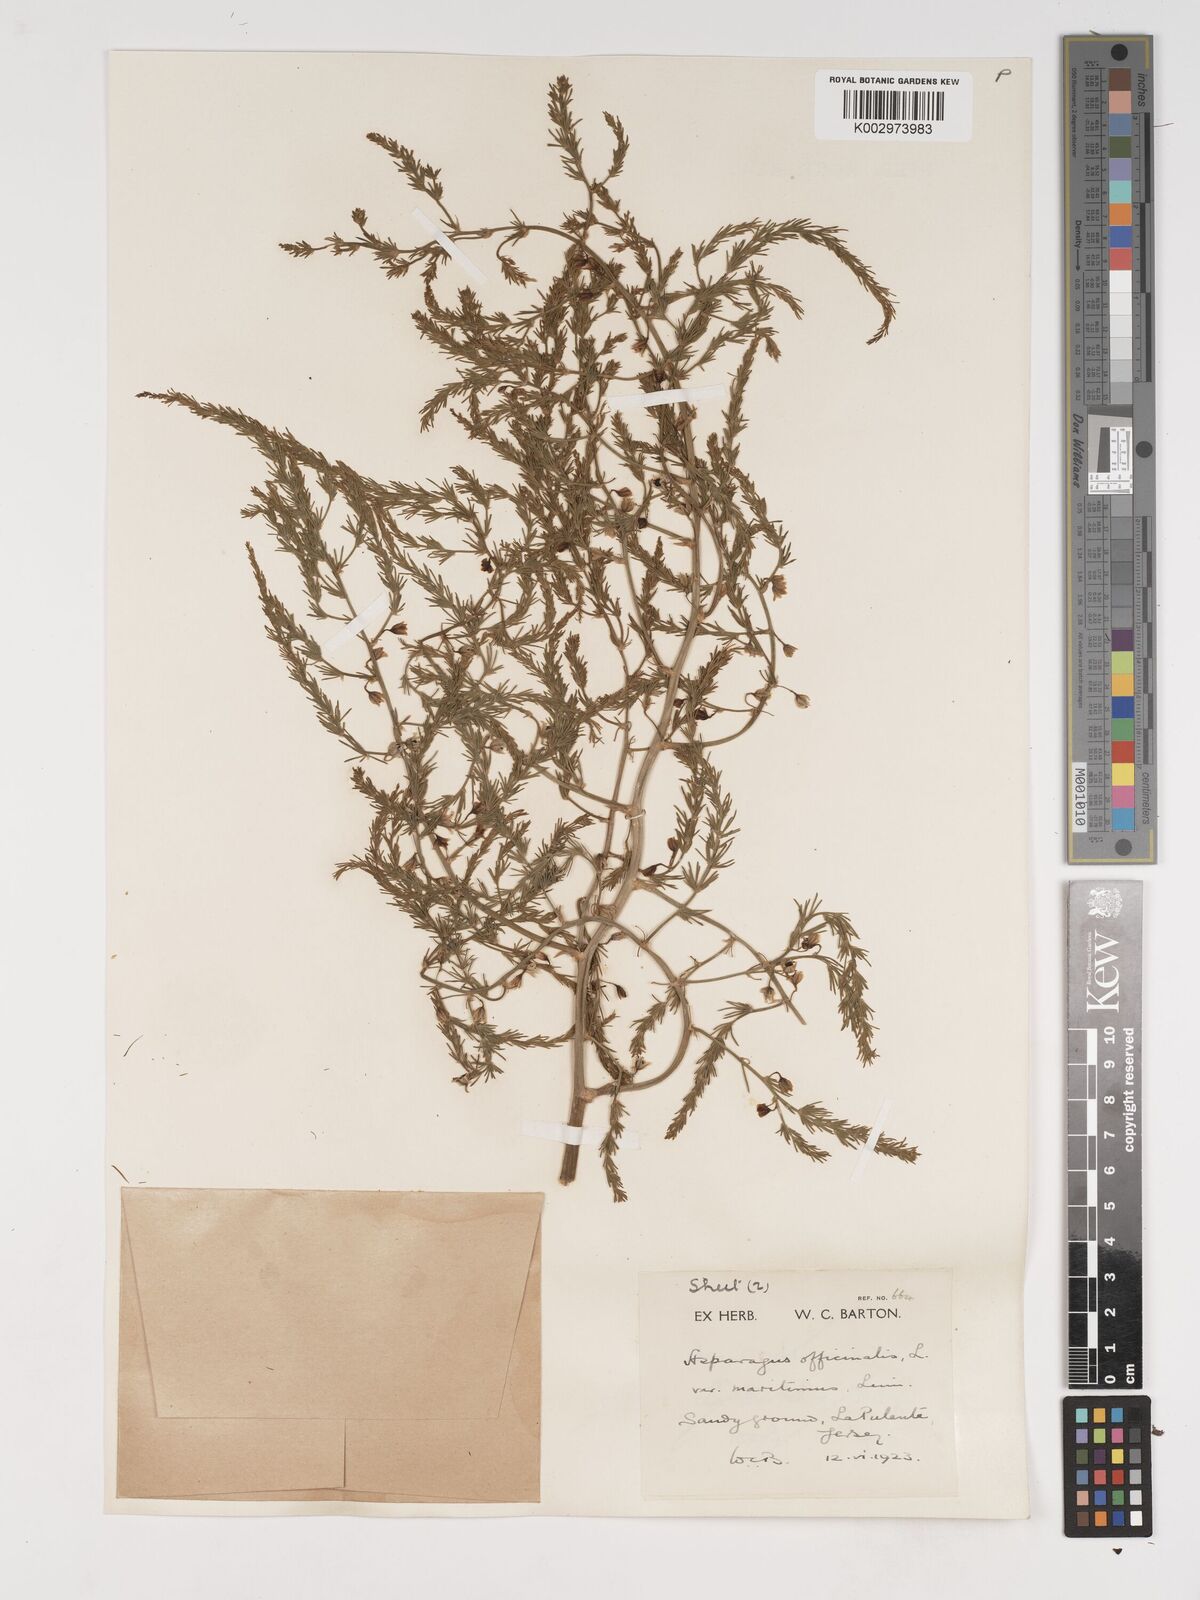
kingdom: Plantae
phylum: Tracheophyta
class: Liliopsida
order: Asparagales
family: Asparagaceae
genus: Asparagus
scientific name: Asparagus maritimus
